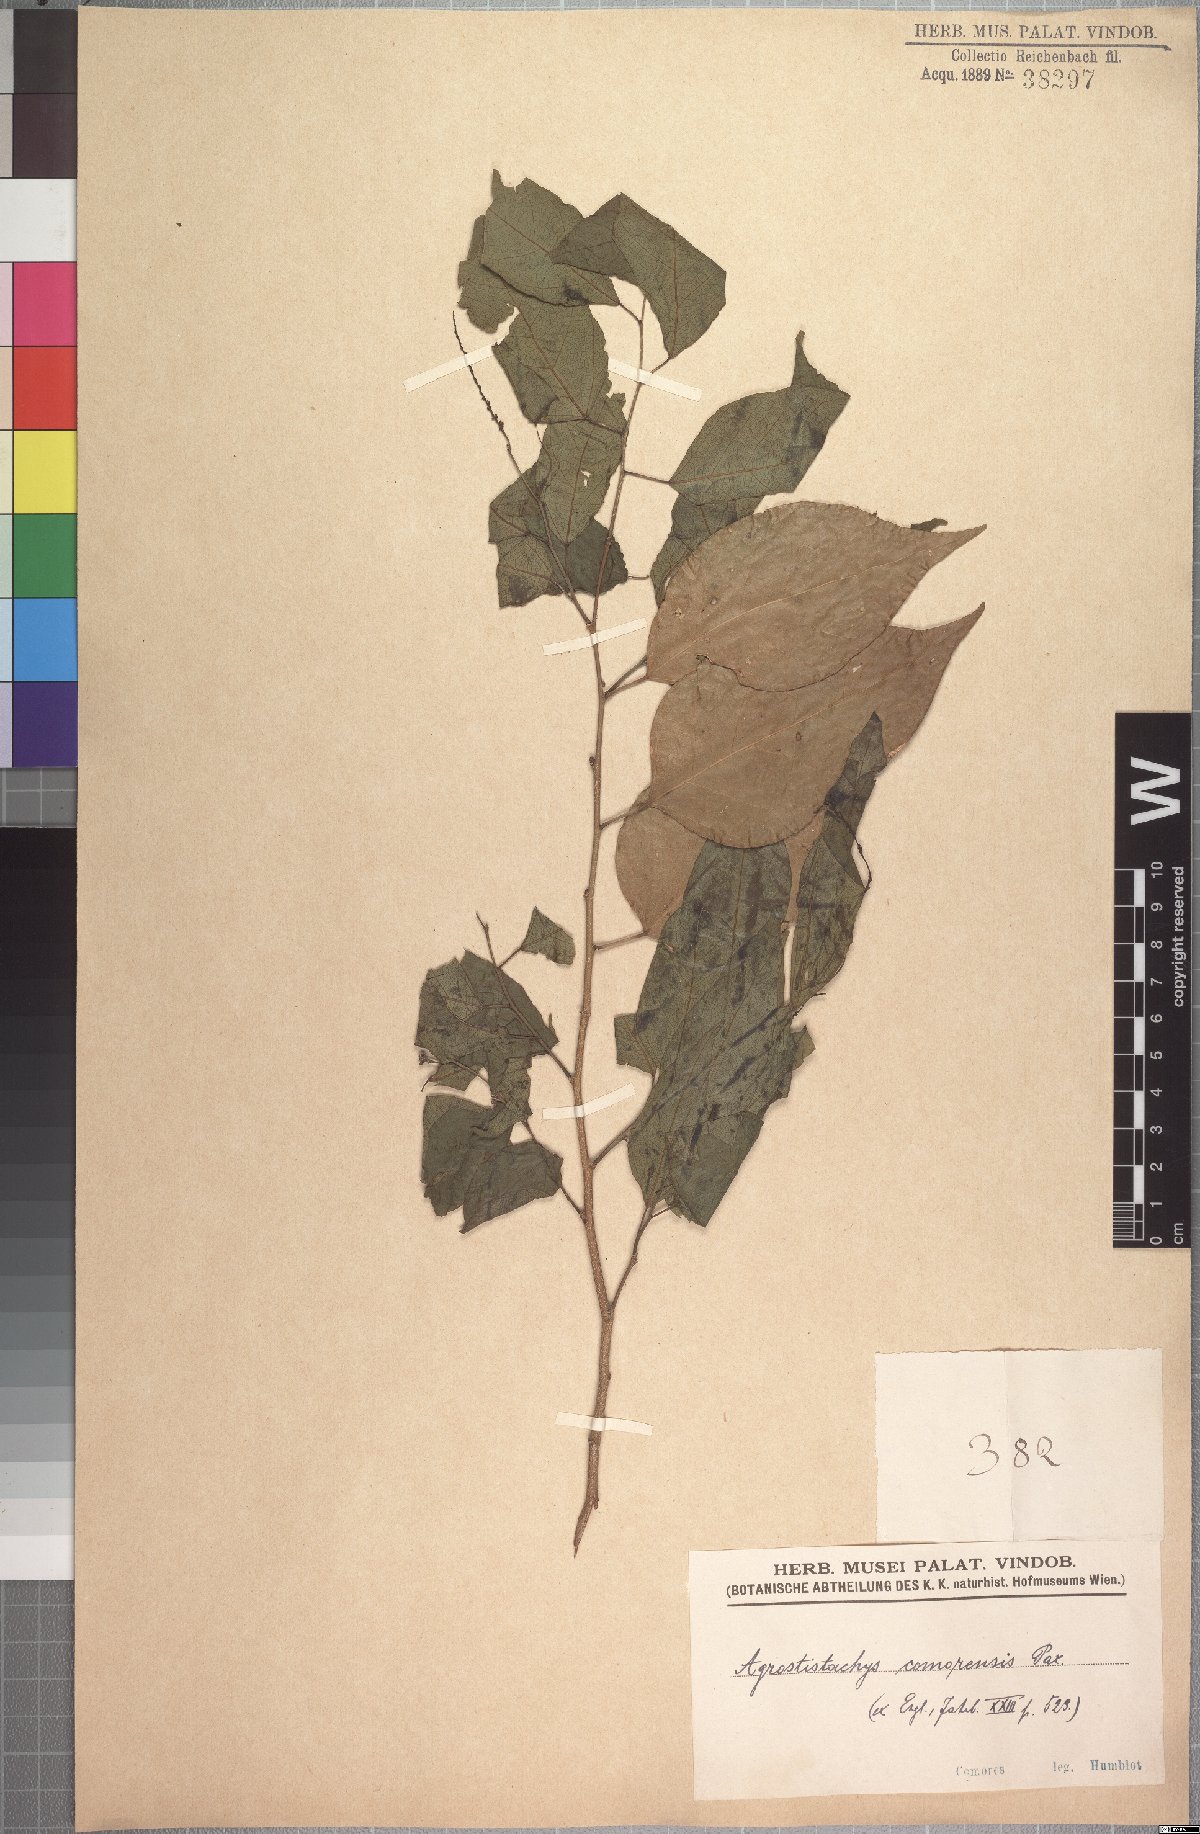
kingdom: Plantae
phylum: Tracheophyta
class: Magnoliopsida
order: Malpighiales
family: Euphorbiaceae
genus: Tannodia
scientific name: Tannodia cordifolia
